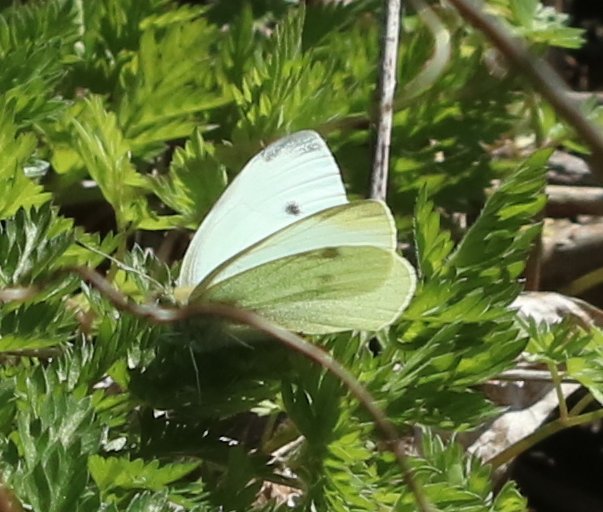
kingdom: Animalia
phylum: Arthropoda
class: Insecta
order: Lepidoptera
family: Pieridae
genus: Pieris
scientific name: Pieris rapae
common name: Cabbage White
